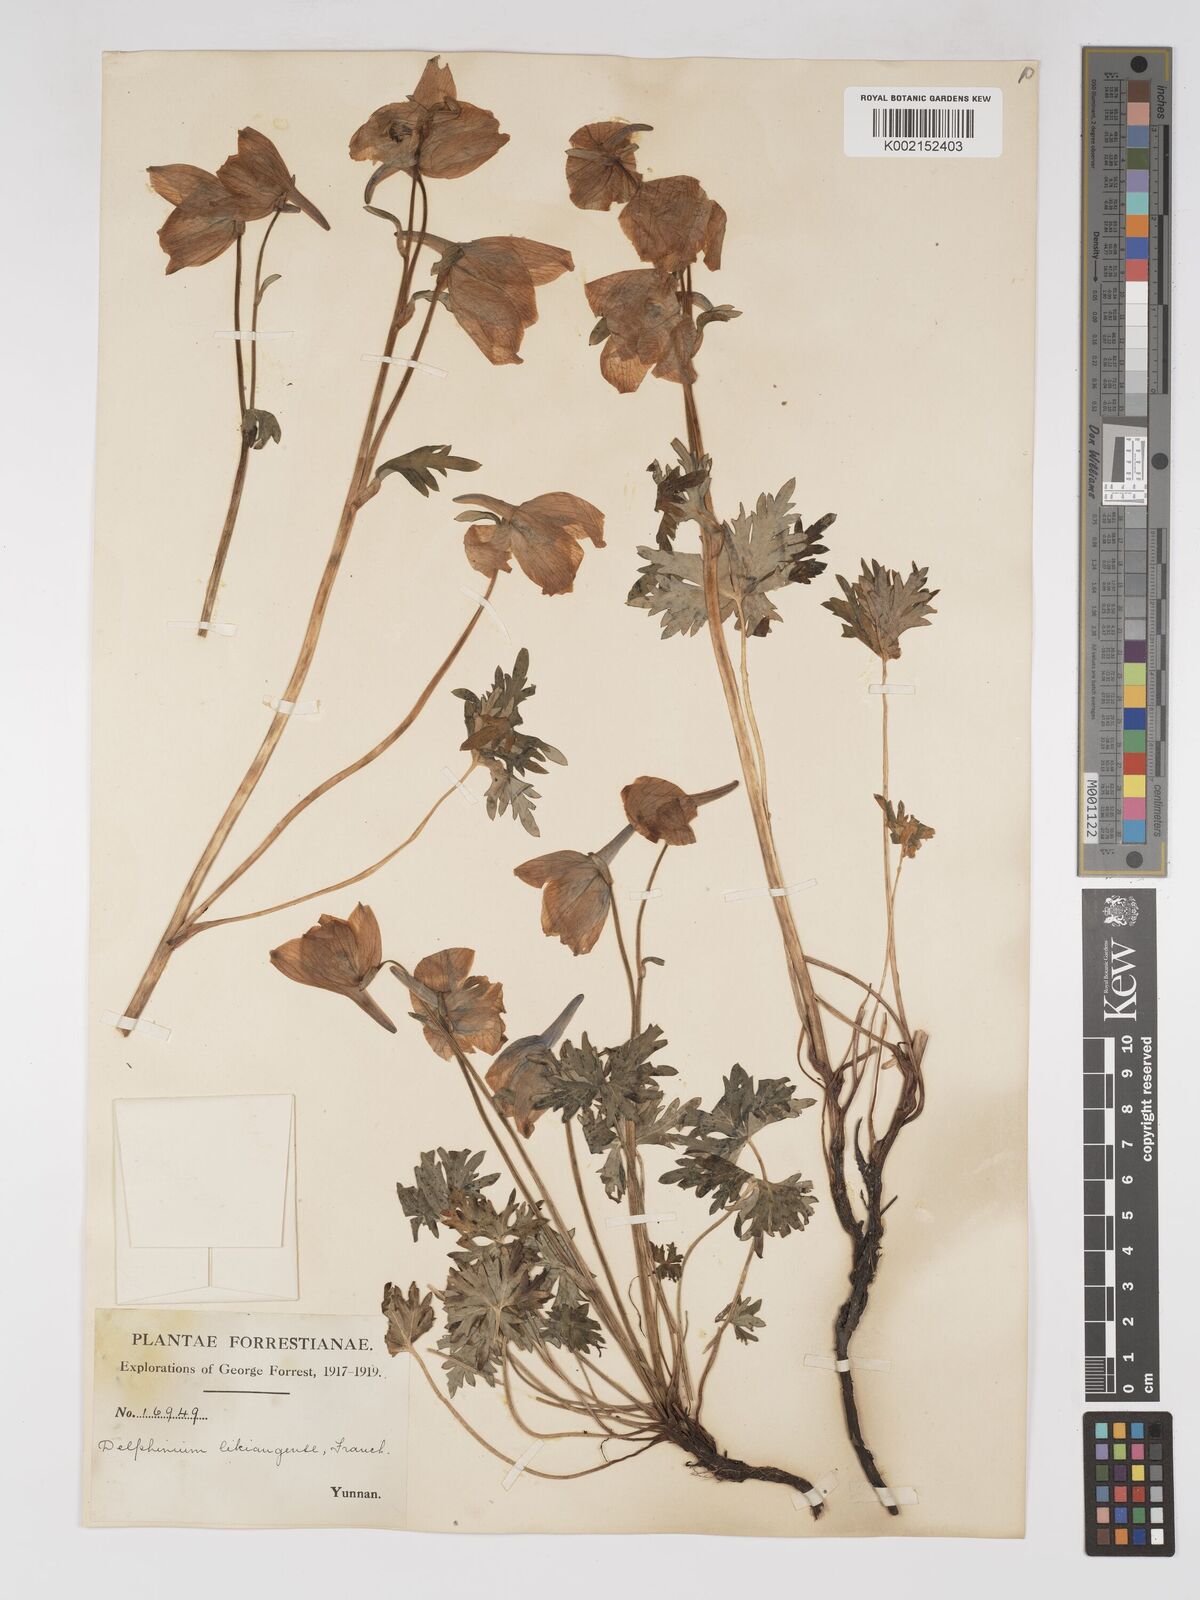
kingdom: Plantae
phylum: Tracheophyta
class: Magnoliopsida
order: Ranunculales
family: Ranunculaceae
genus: Delphinium
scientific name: Delphinium likiangense
